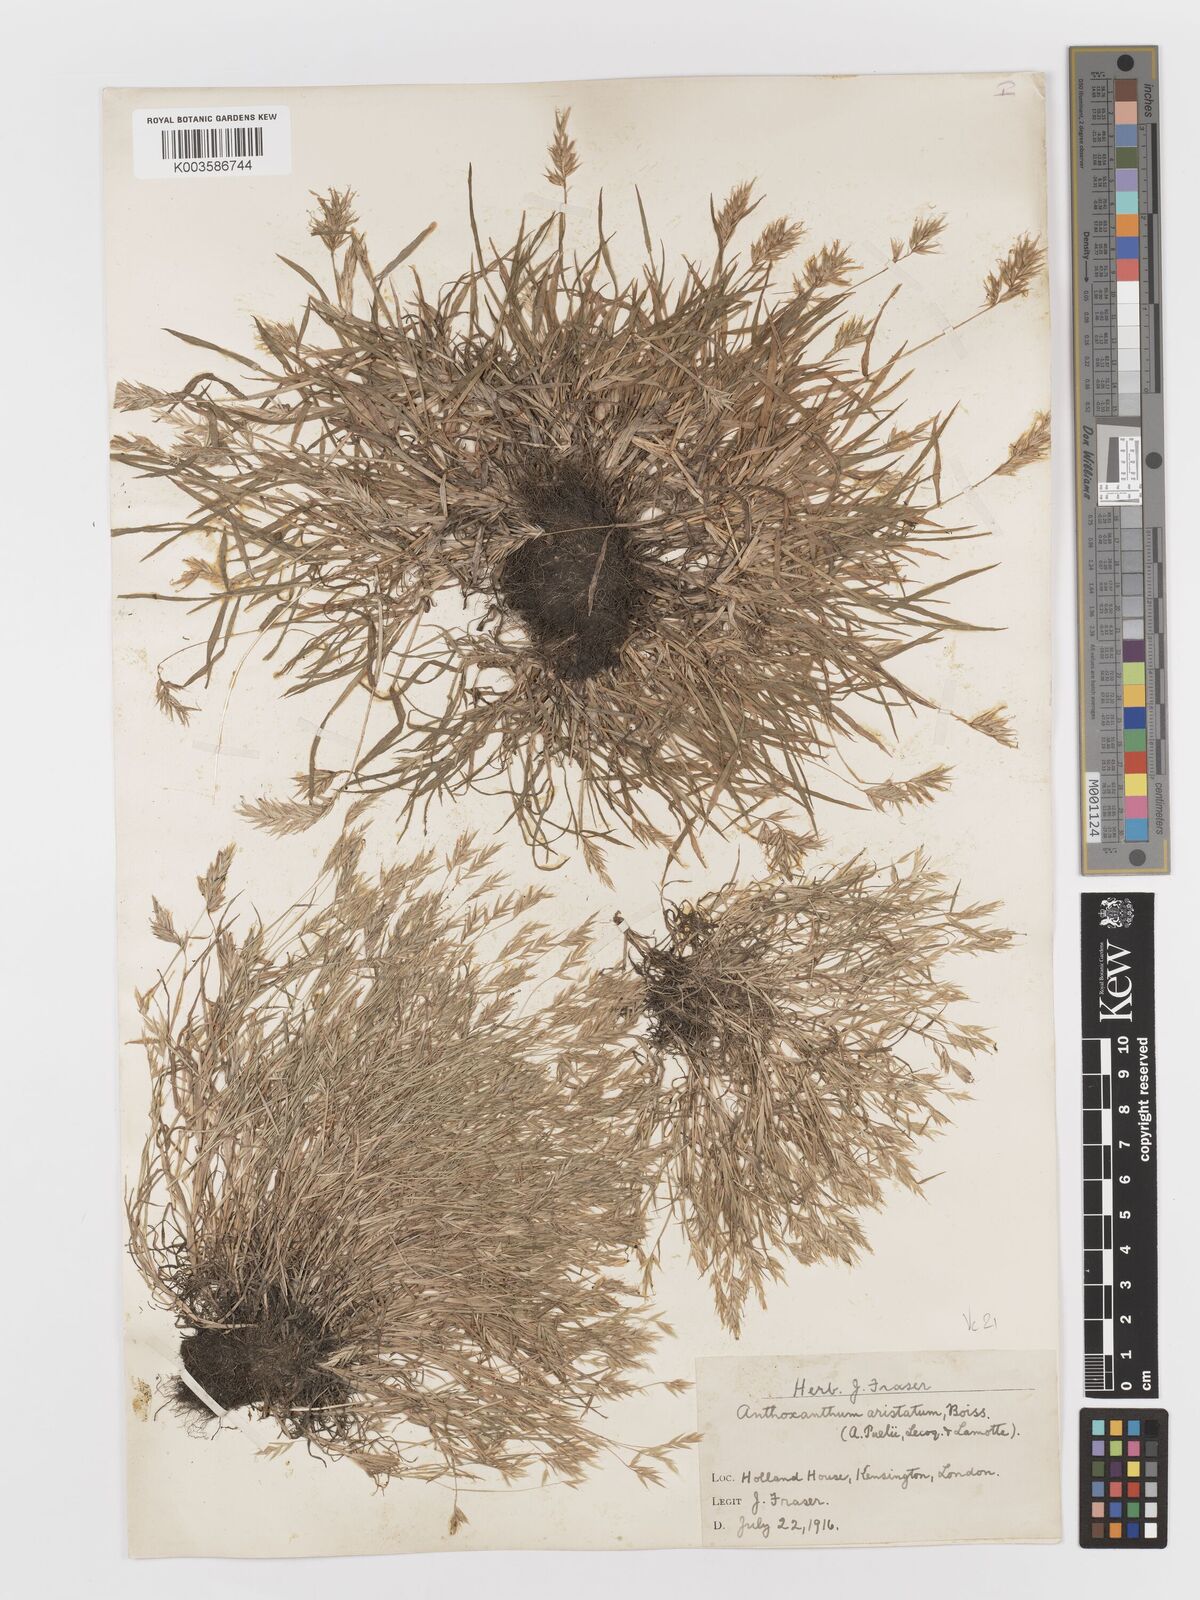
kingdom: Plantae
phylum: Tracheophyta
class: Liliopsida
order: Poales
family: Poaceae
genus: Anthoxanthum
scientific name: Anthoxanthum aristatum
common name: Annual vernal-grass
